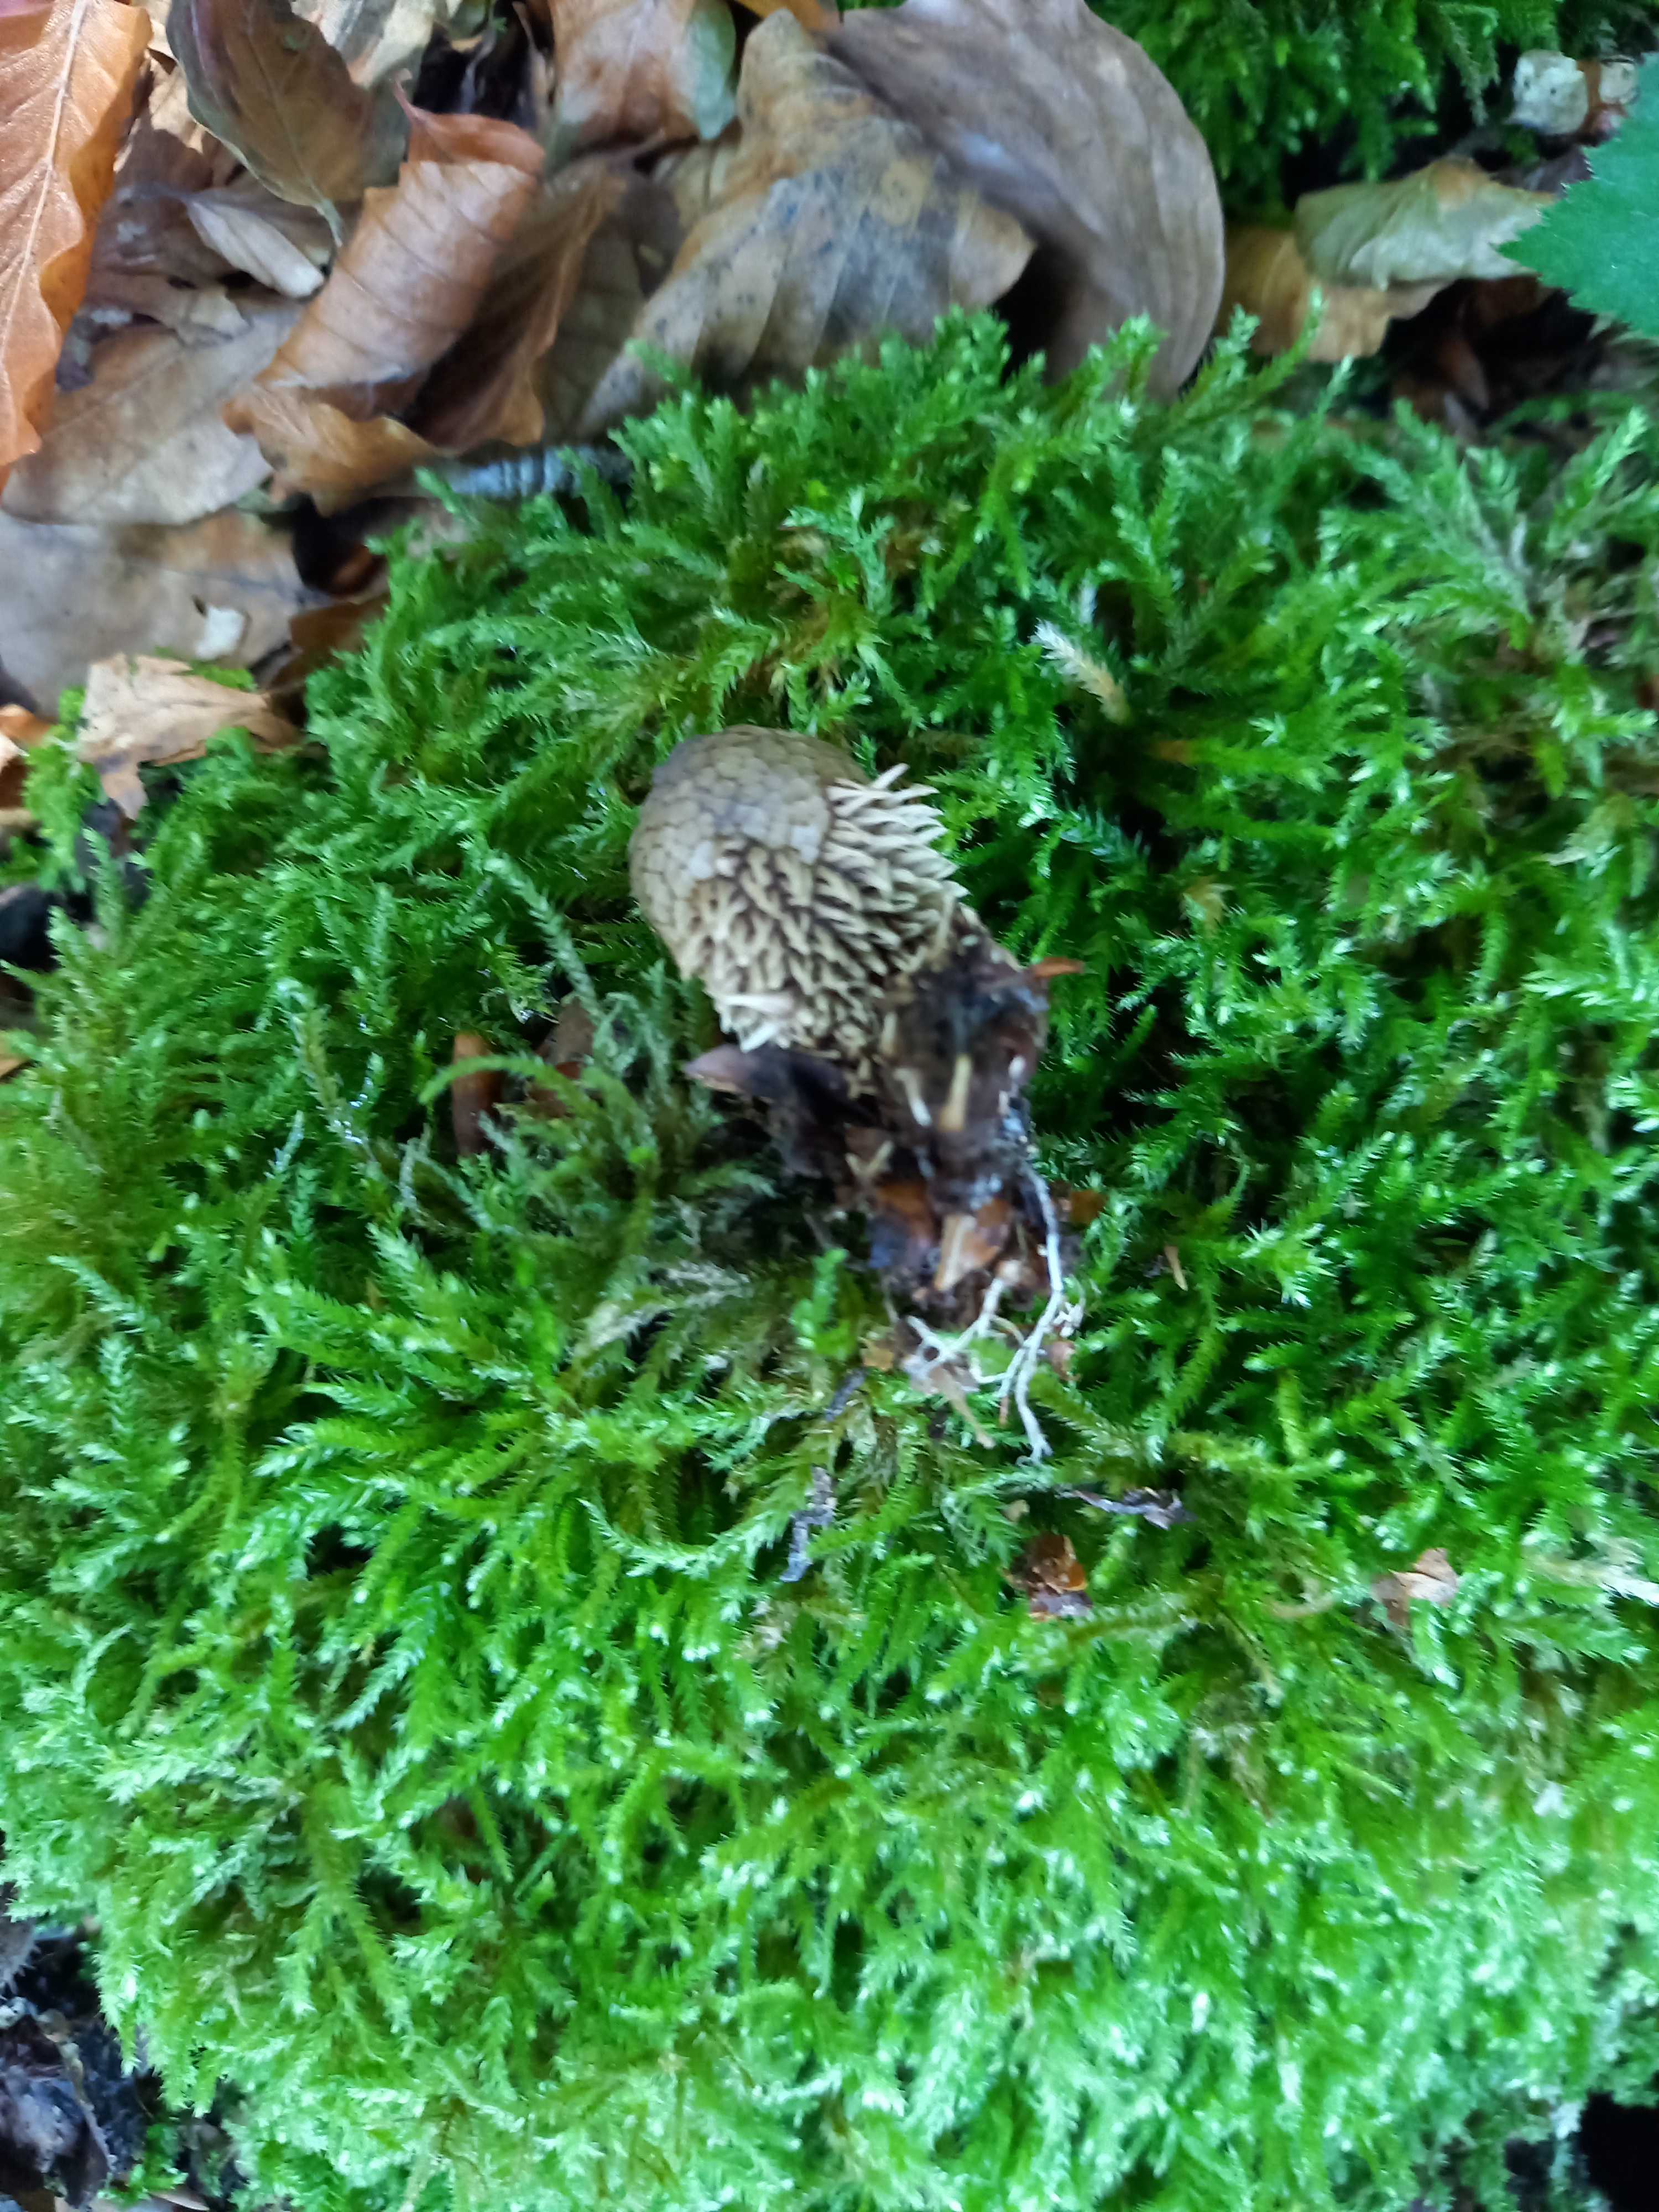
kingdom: Fungi
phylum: Basidiomycota
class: Agaricomycetes
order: Agaricales
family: Lycoperdaceae
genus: Lycoperdon
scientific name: Lycoperdon echinatum
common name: pindsvine-støvbold
